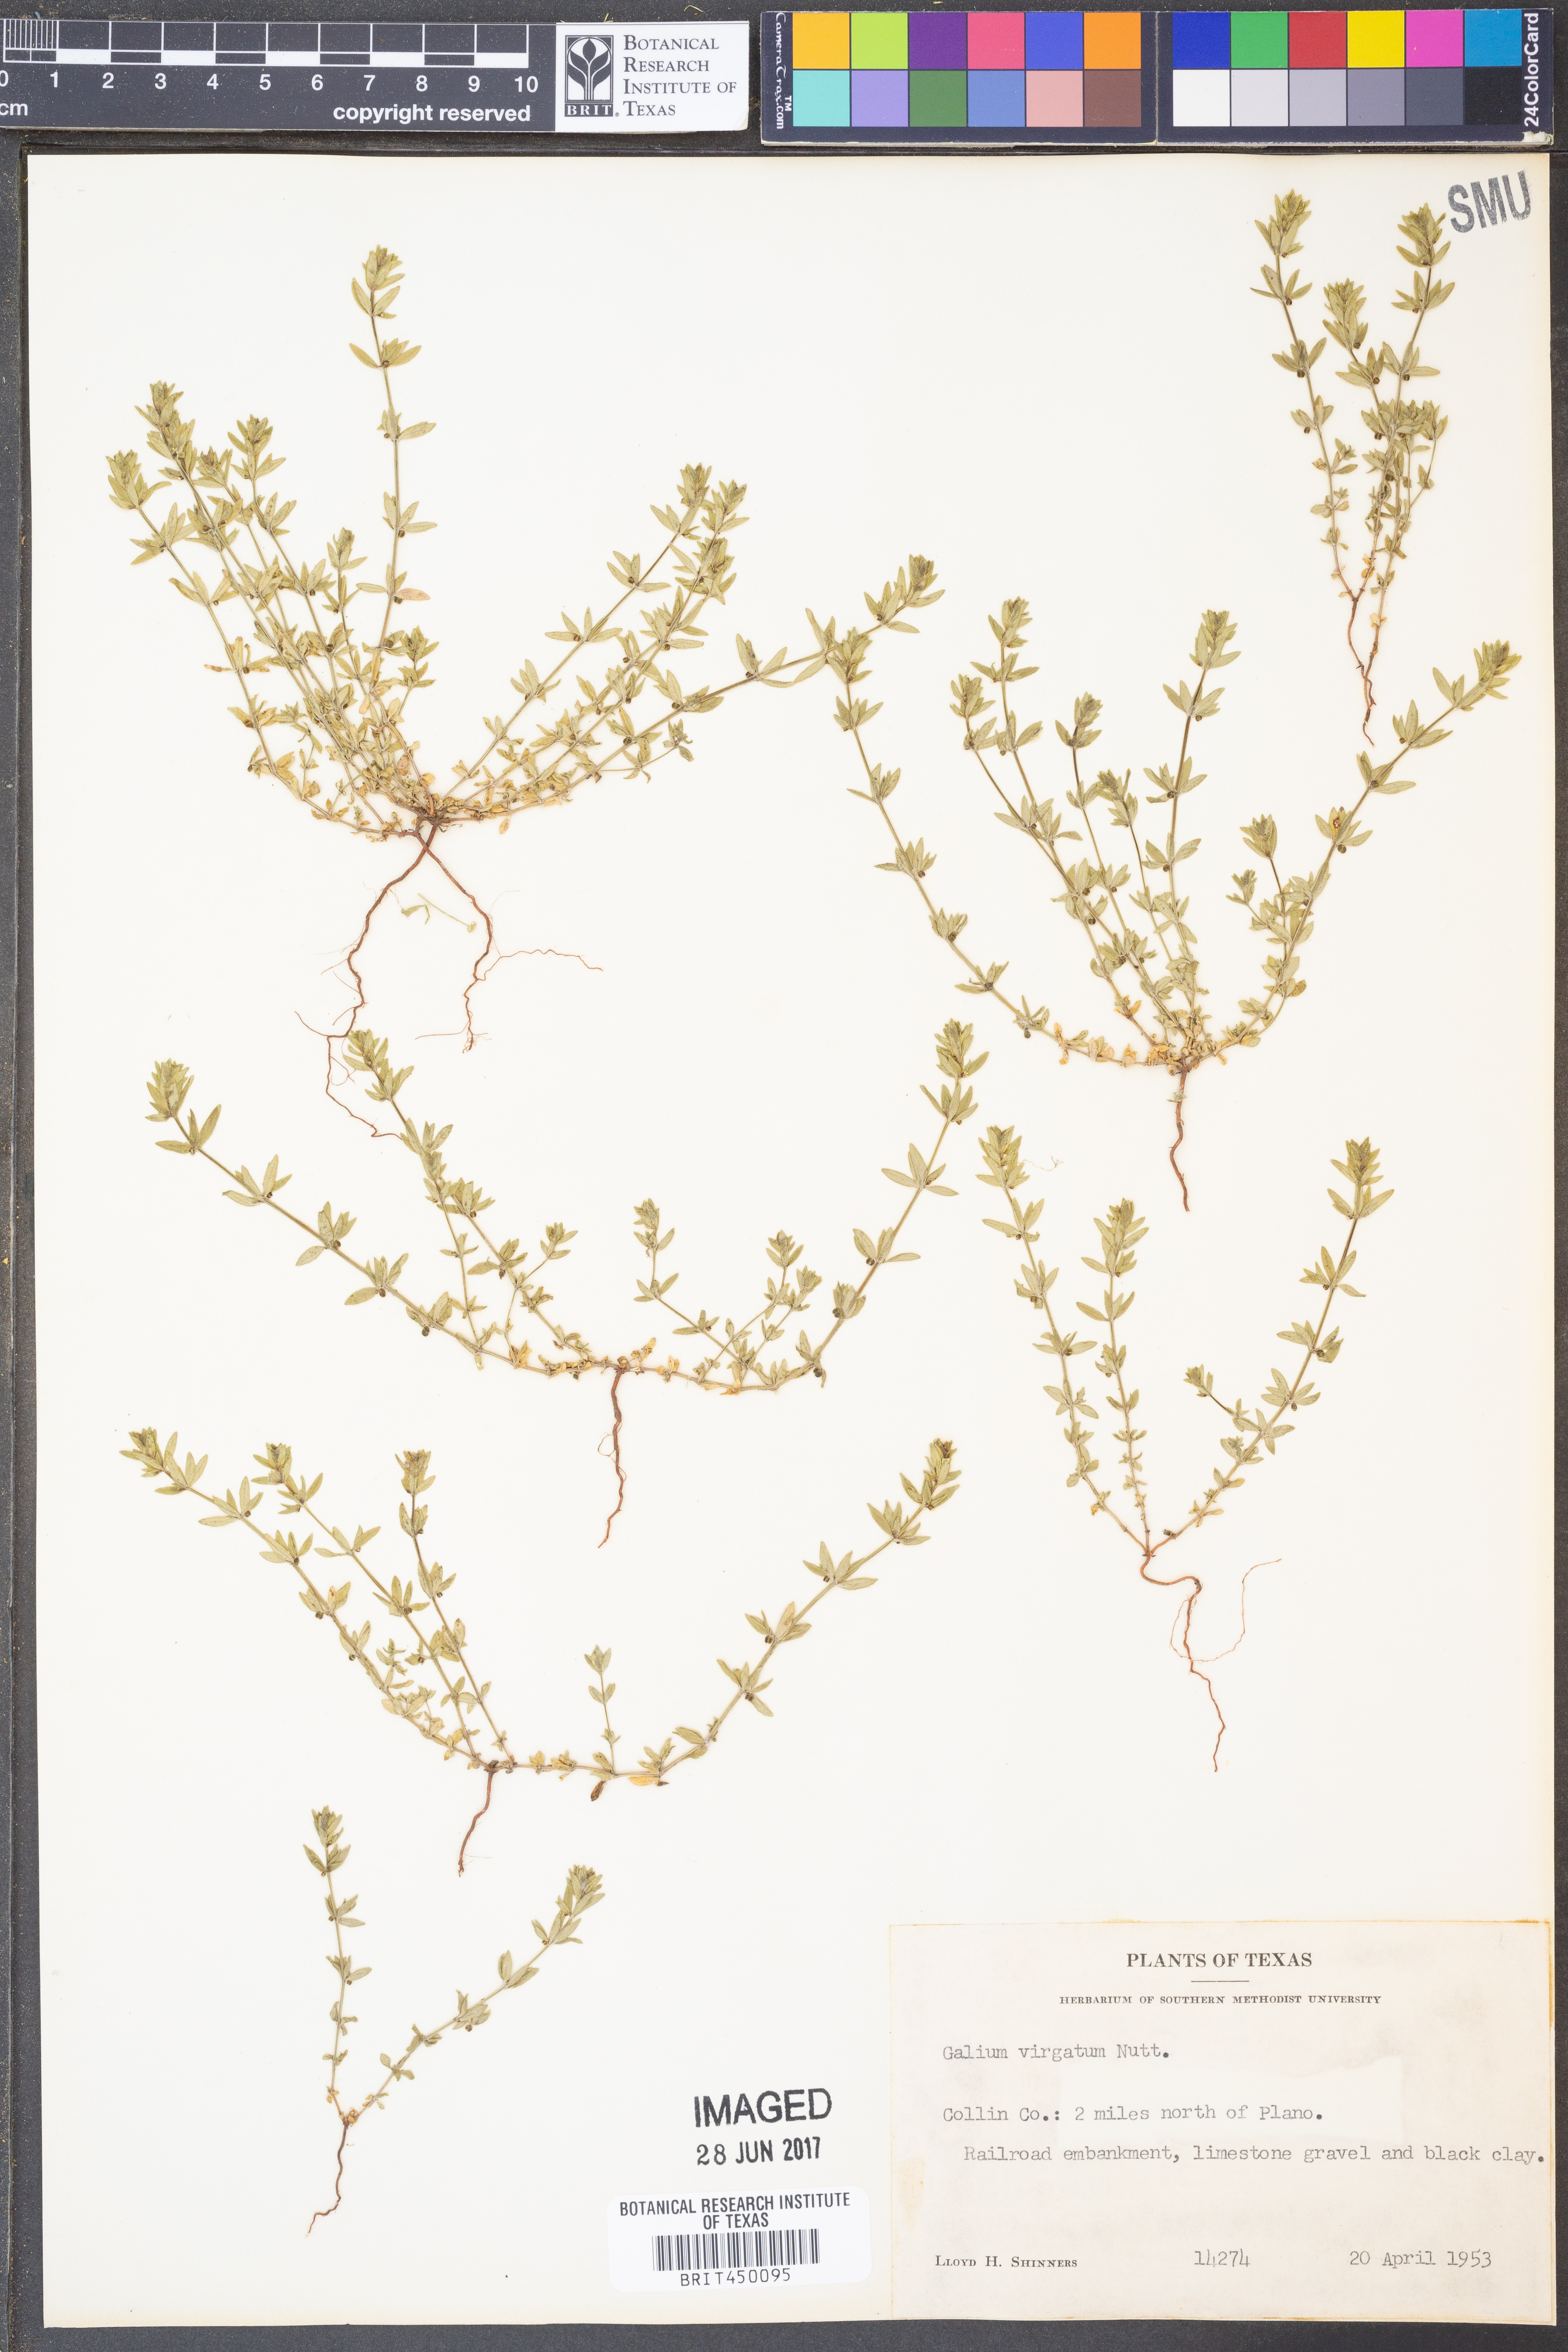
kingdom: Plantae
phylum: Tracheophyta
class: Magnoliopsida
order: Gentianales
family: Rubiaceae
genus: Galium
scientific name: Galium virgatum
